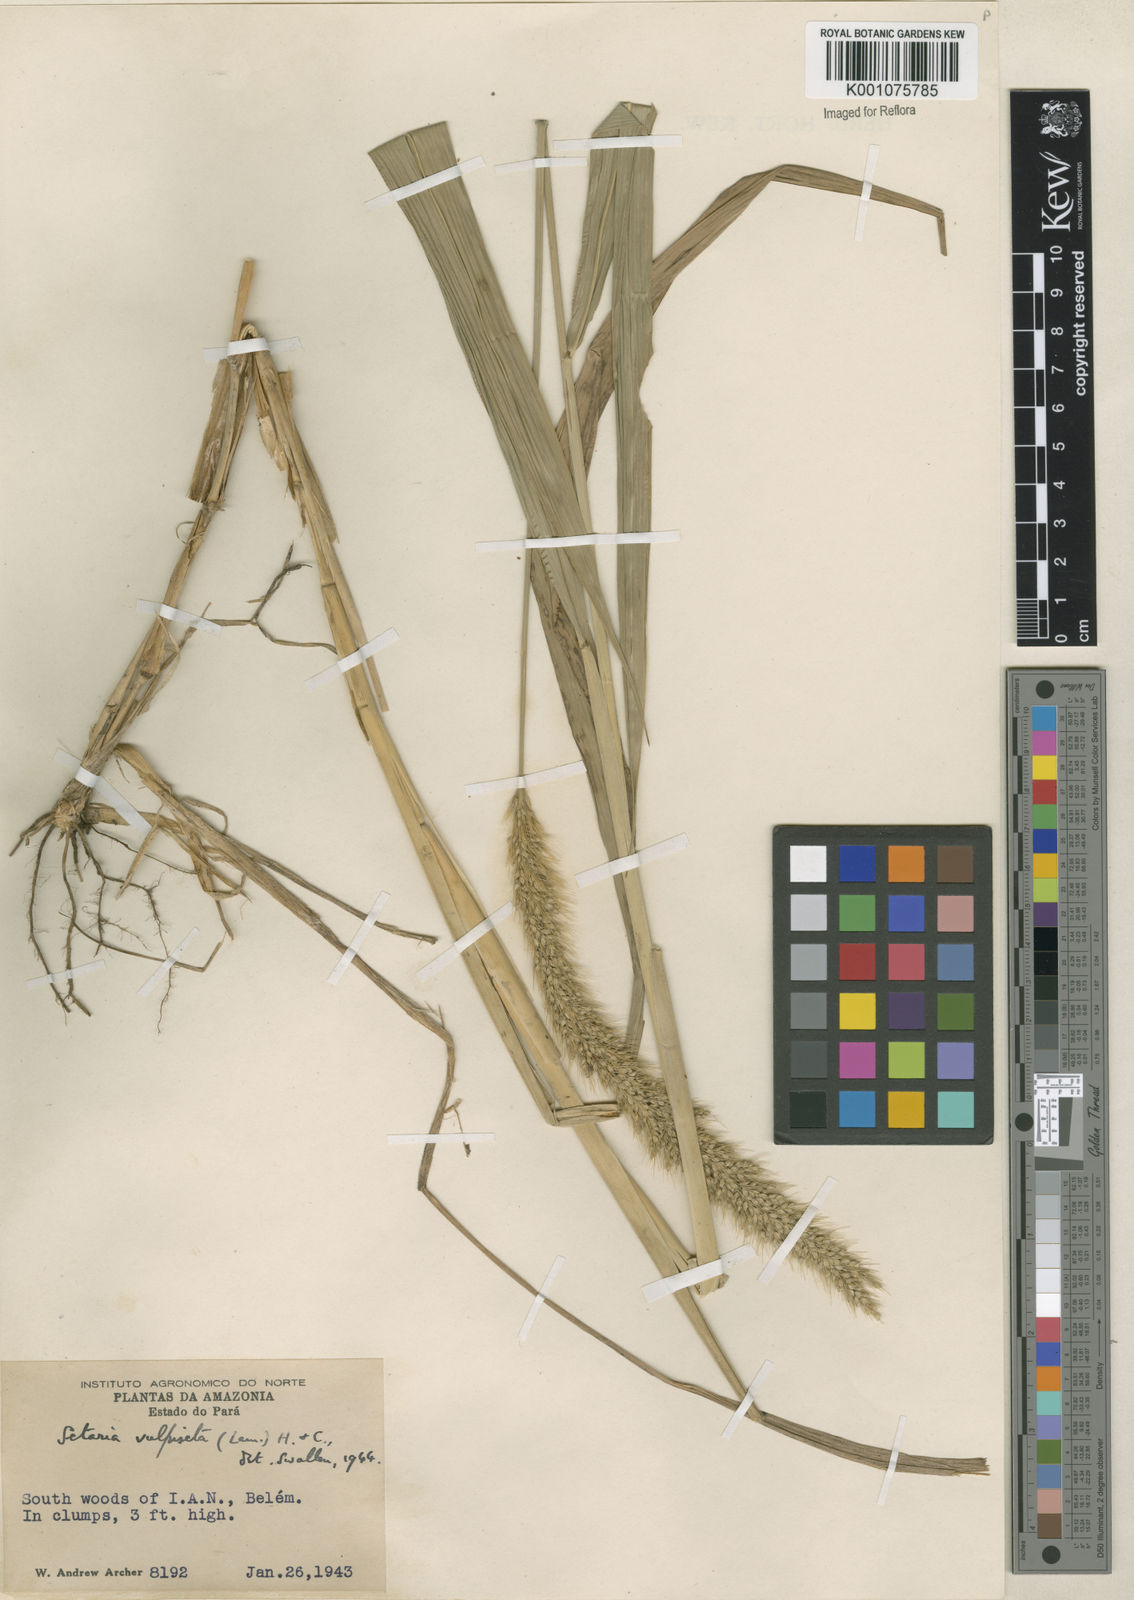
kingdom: Plantae
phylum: Tracheophyta
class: Liliopsida
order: Poales
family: Poaceae
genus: Setaria
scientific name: Setaria vulpiseta
